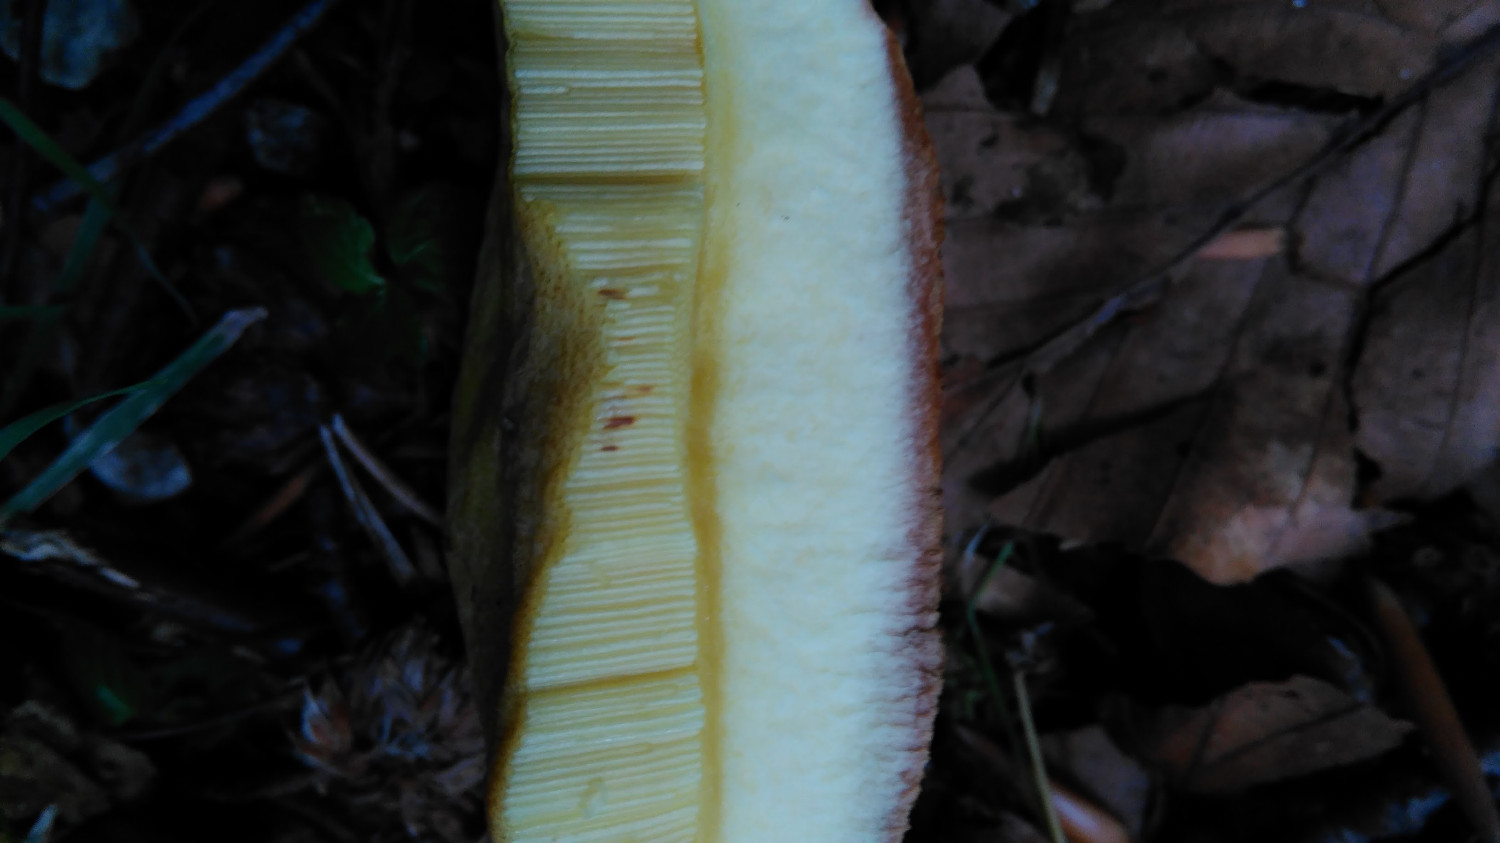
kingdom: Fungi
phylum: Basidiomycota
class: Agaricomycetes
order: Boletales
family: Boletaceae
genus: Butyriboletus
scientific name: Butyriboletus appendiculatus
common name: tenstokket rørhat
